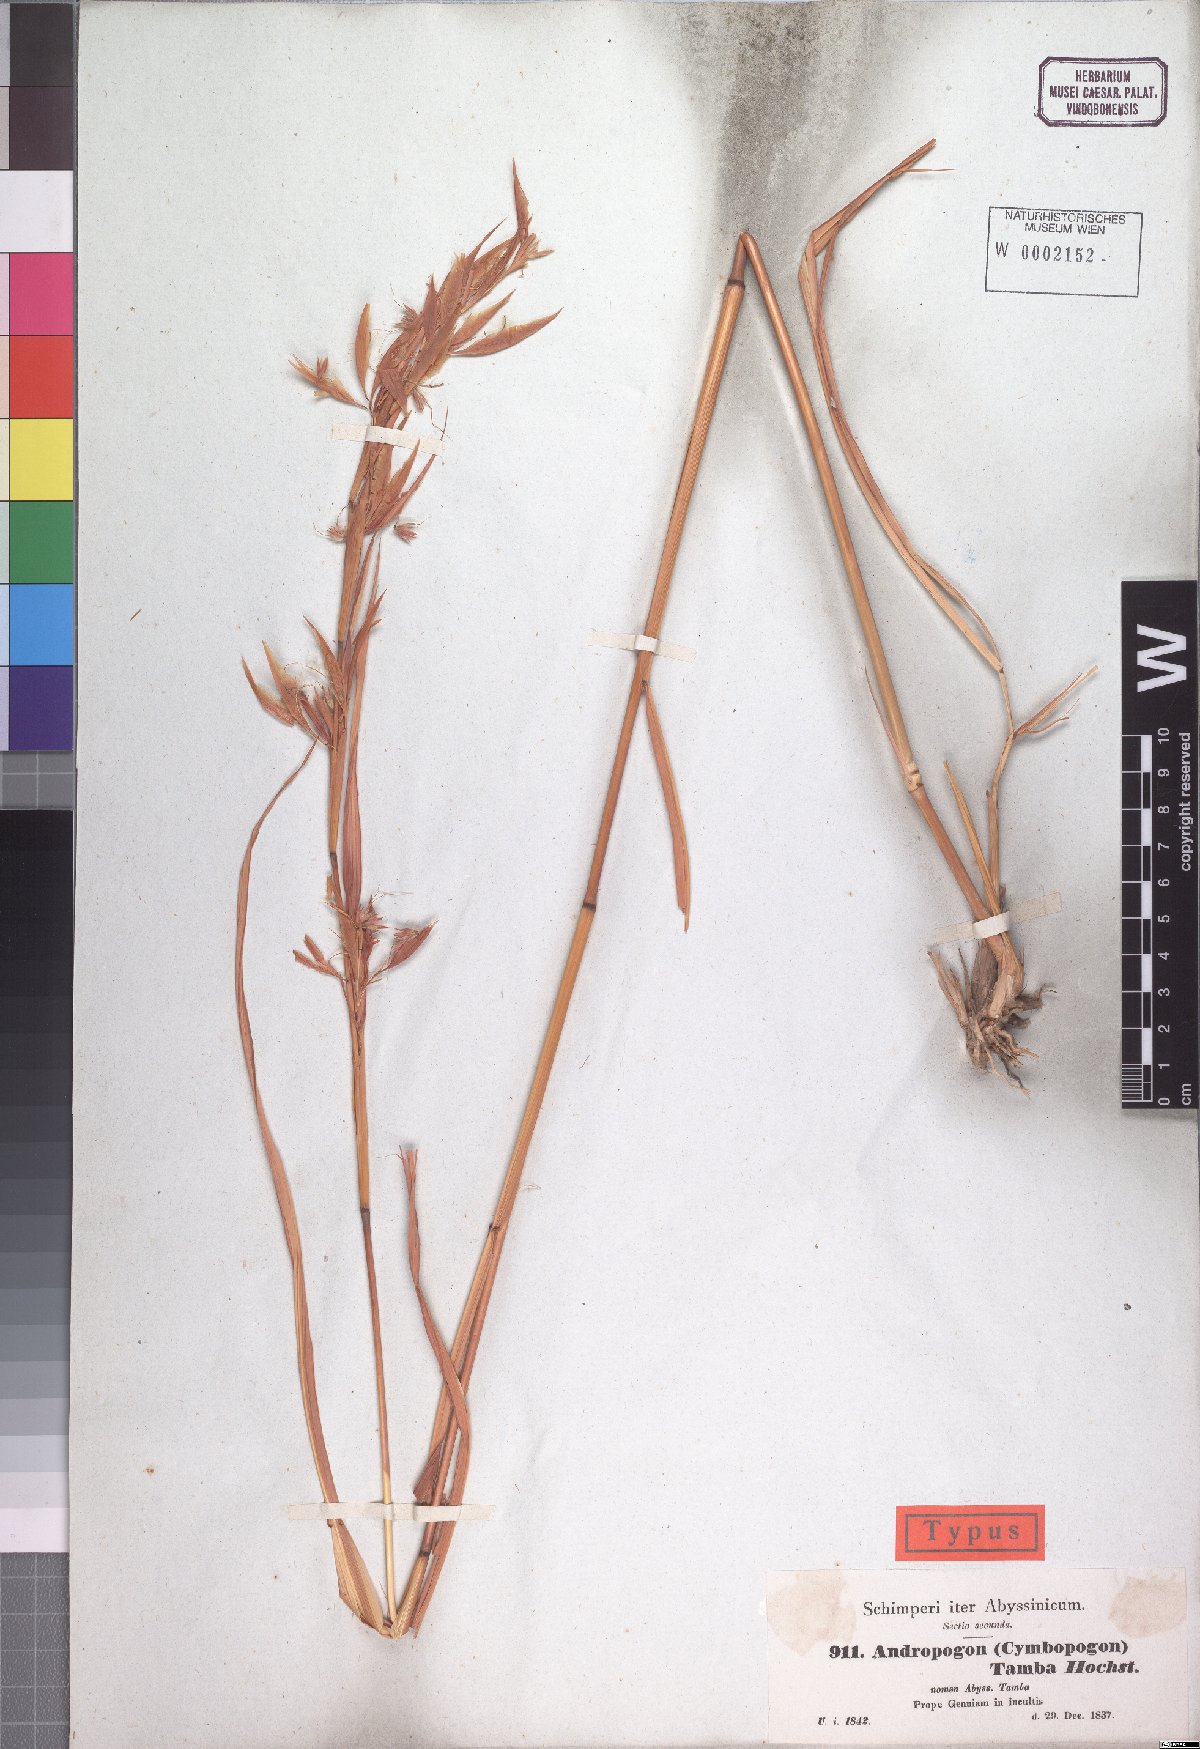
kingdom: Plantae
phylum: Tracheophyta
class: Liliopsida
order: Poales
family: Poaceae
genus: Hyparrhenia
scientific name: Hyparrhenia tamba
